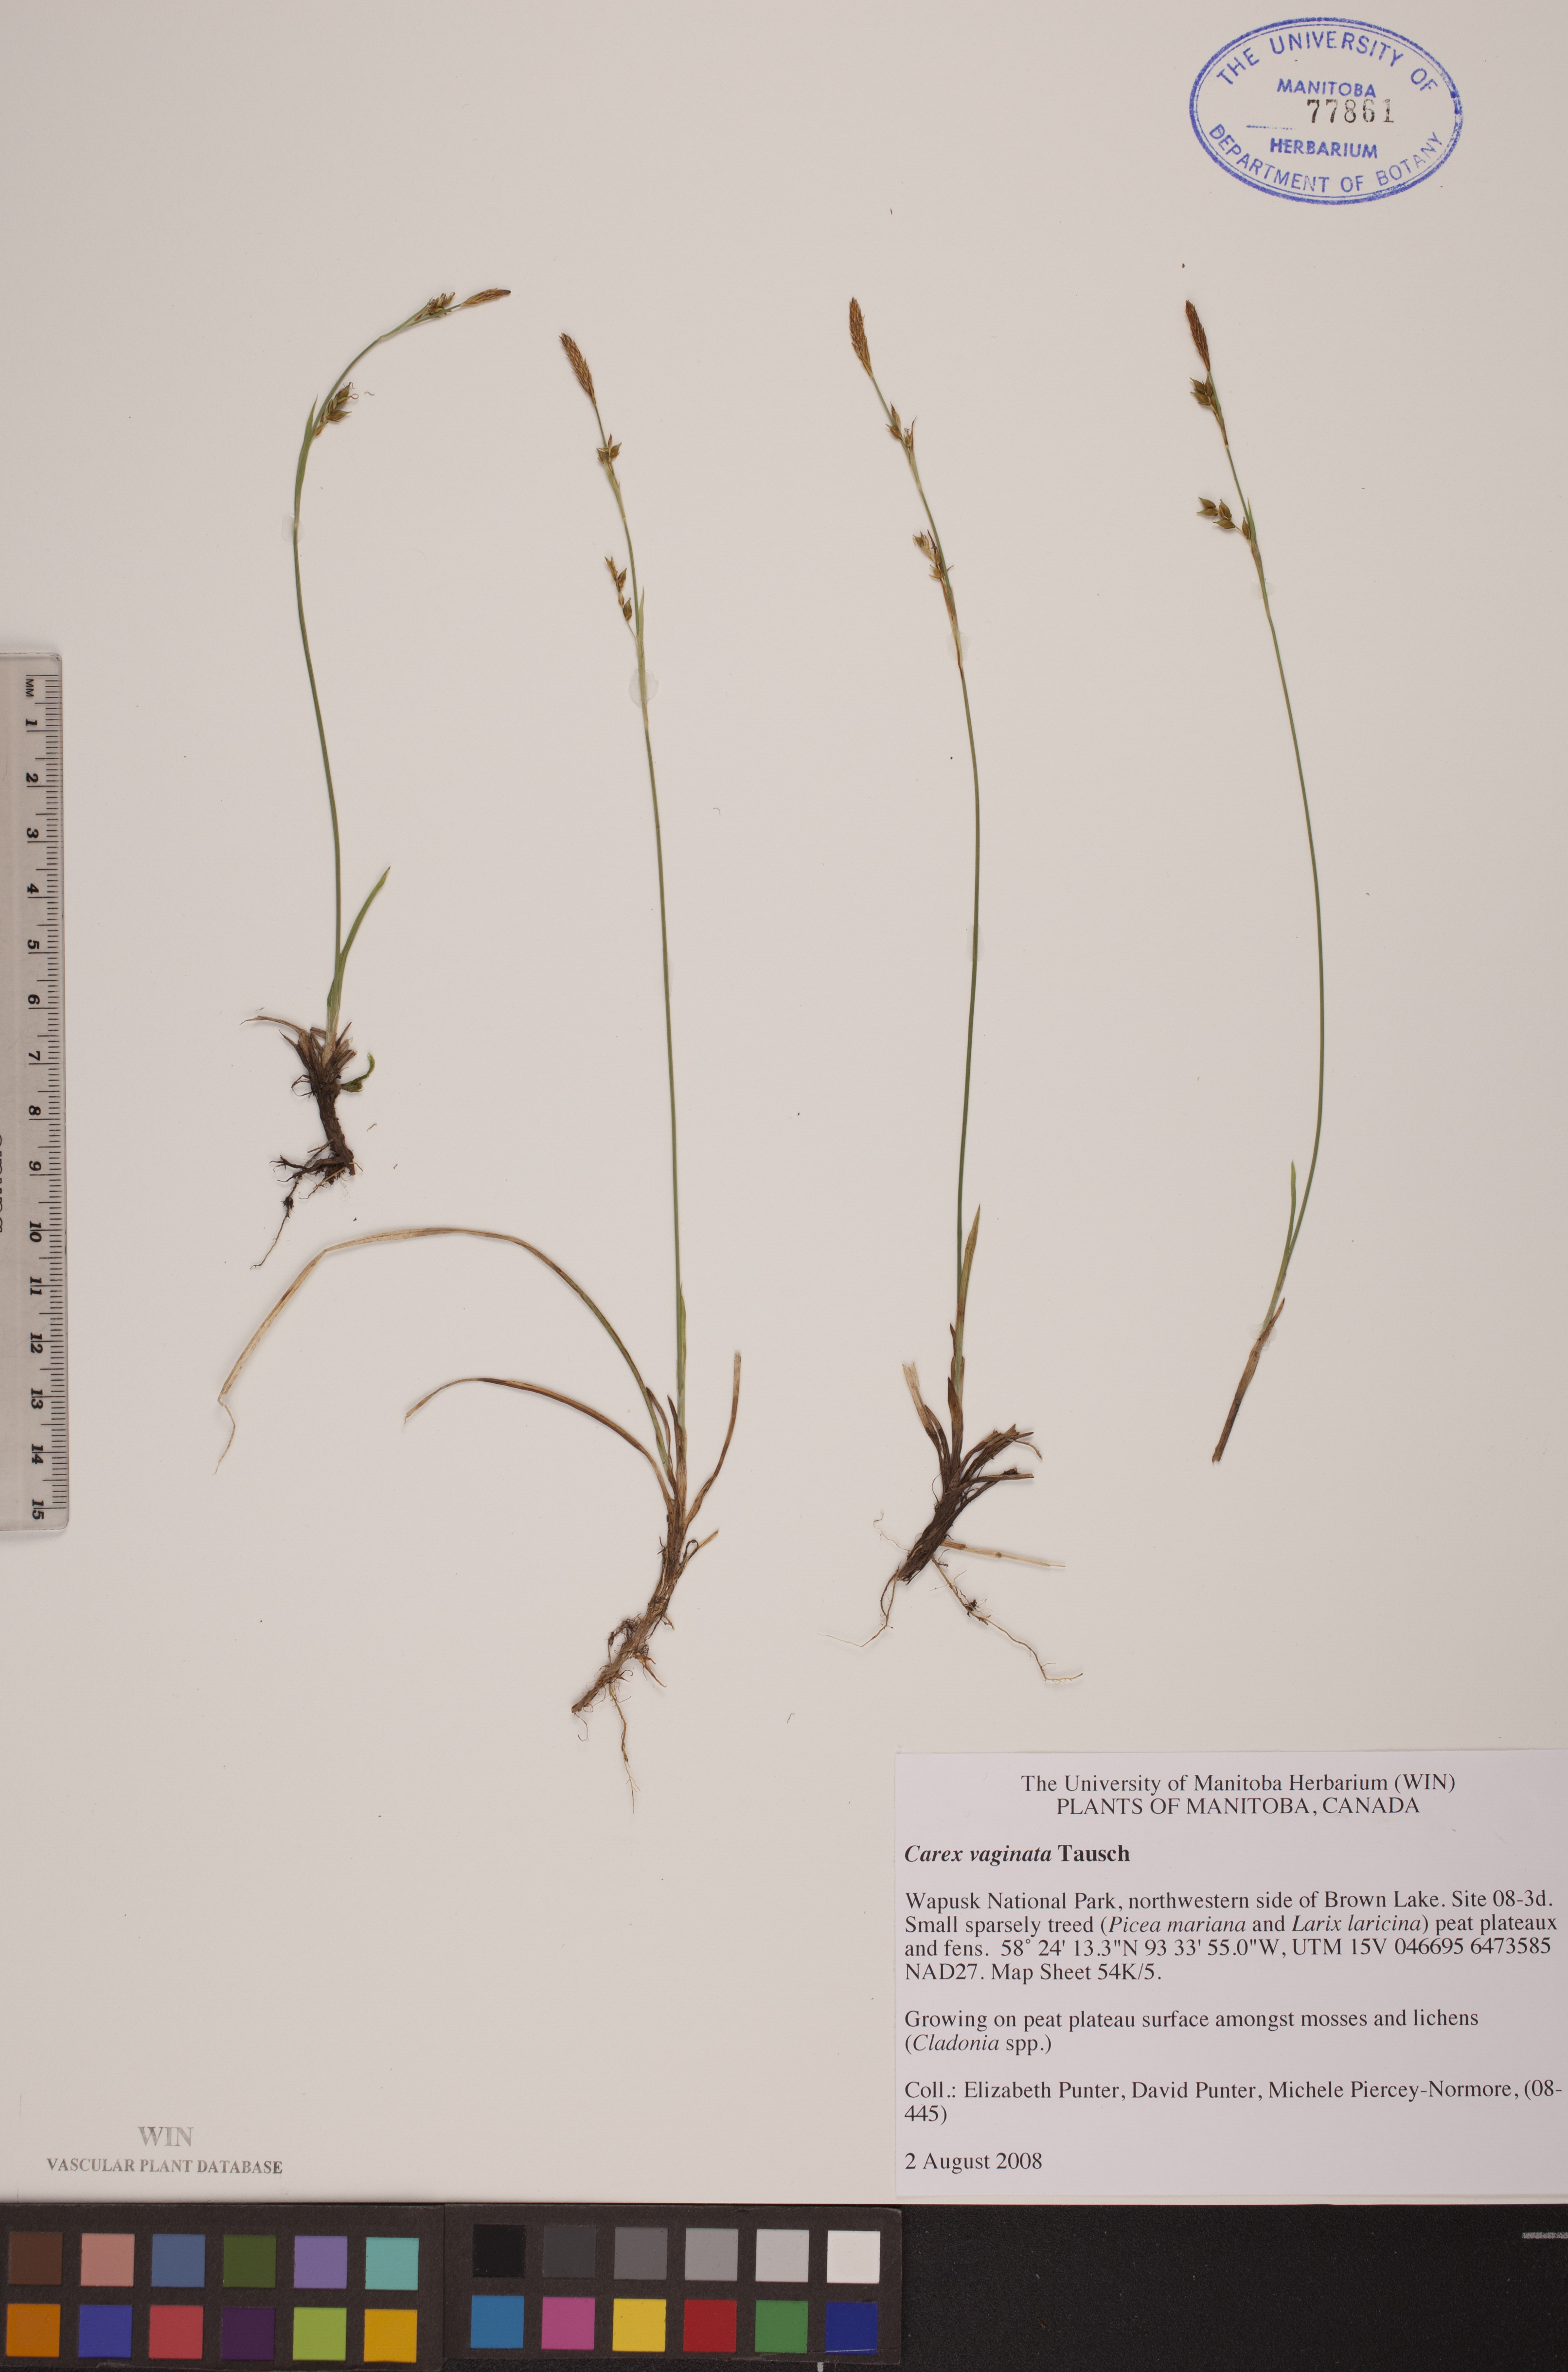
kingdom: Plantae
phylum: Tracheophyta
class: Liliopsida
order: Poales
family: Cyperaceae
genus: Carex
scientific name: Carex vaginata
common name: Sheathed sedge
